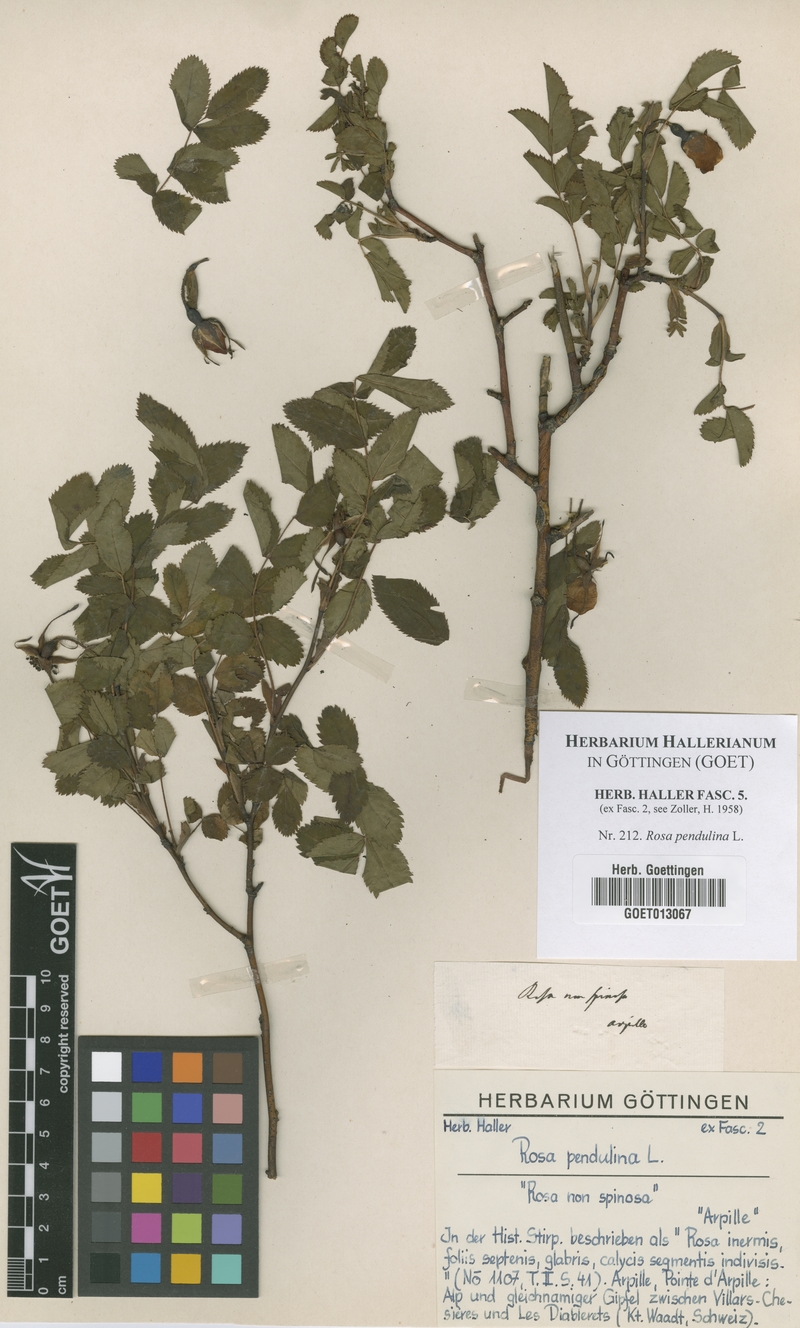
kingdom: Plantae
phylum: Tracheophyta
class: Magnoliopsida
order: Rosales
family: Rosaceae
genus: Rosa
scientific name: Rosa pendulina
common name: Alpine rose
